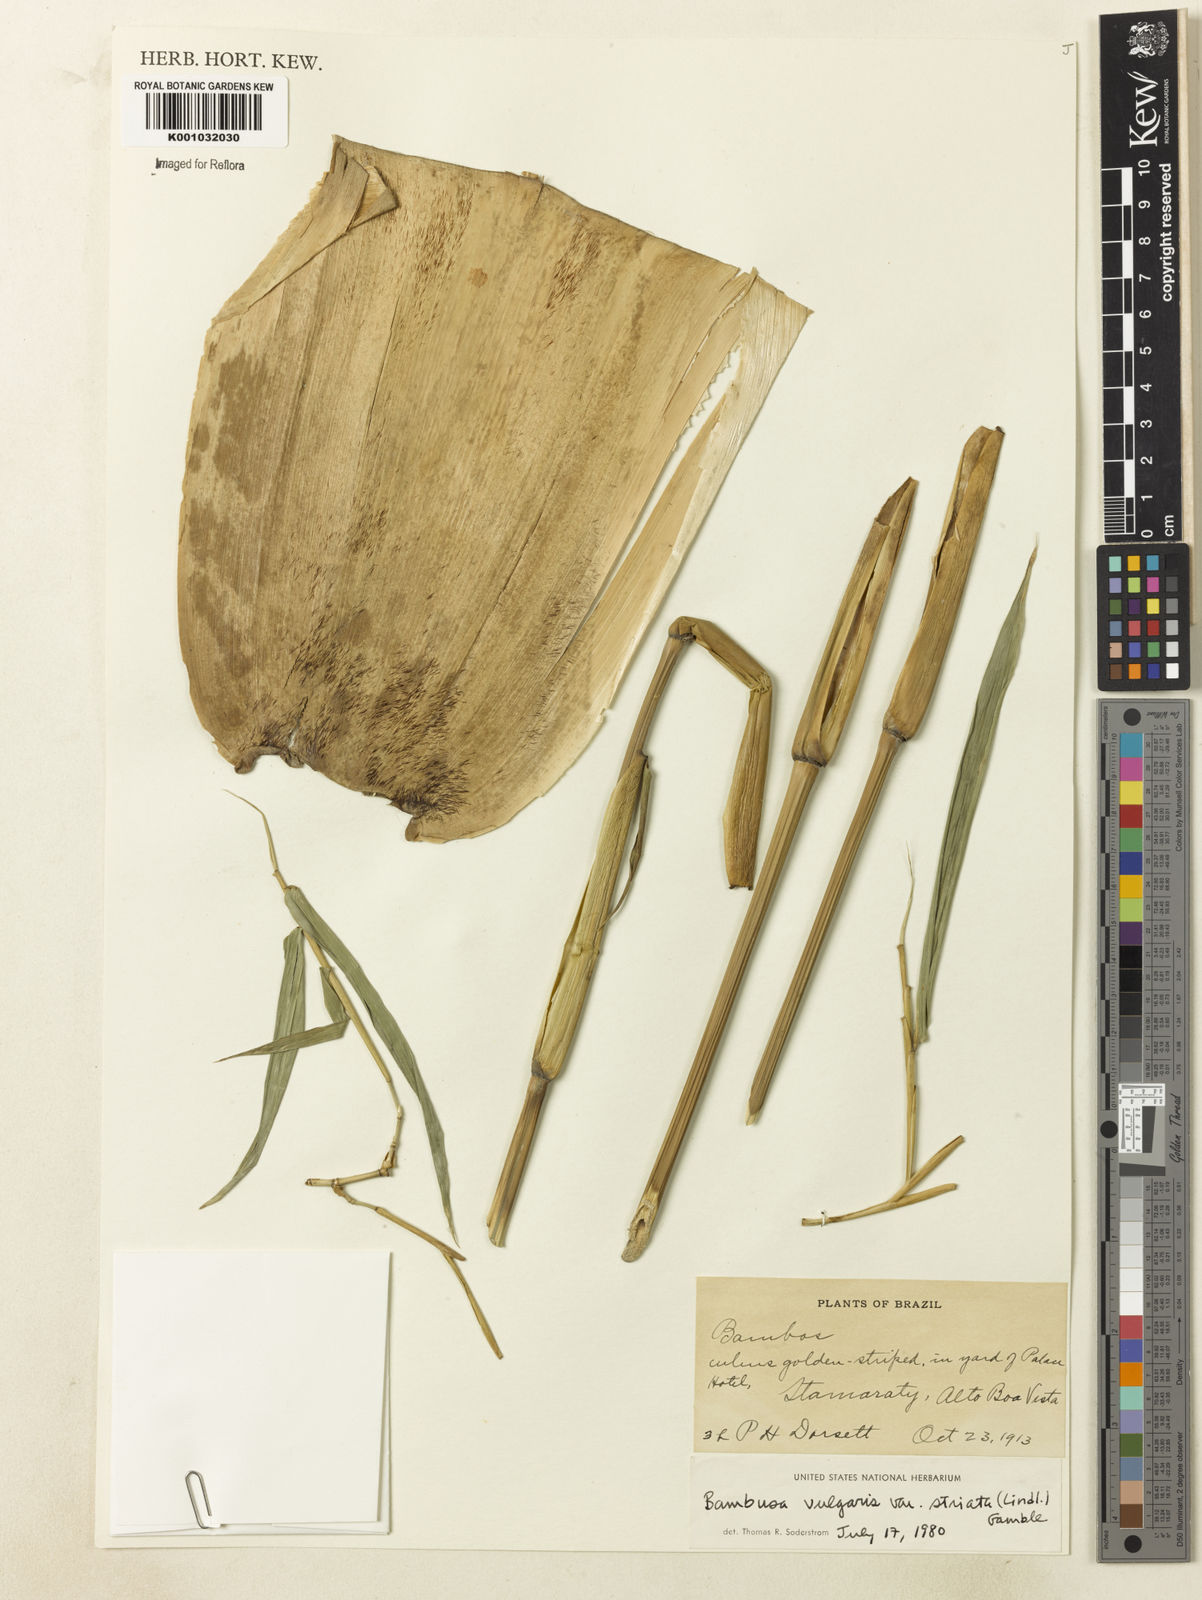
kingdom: Plantae
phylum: Tracheophyta
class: Liliopsida
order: Poales
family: Poaceae
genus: Bambusa
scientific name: Bambusa vulgaris
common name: Common bamboo
